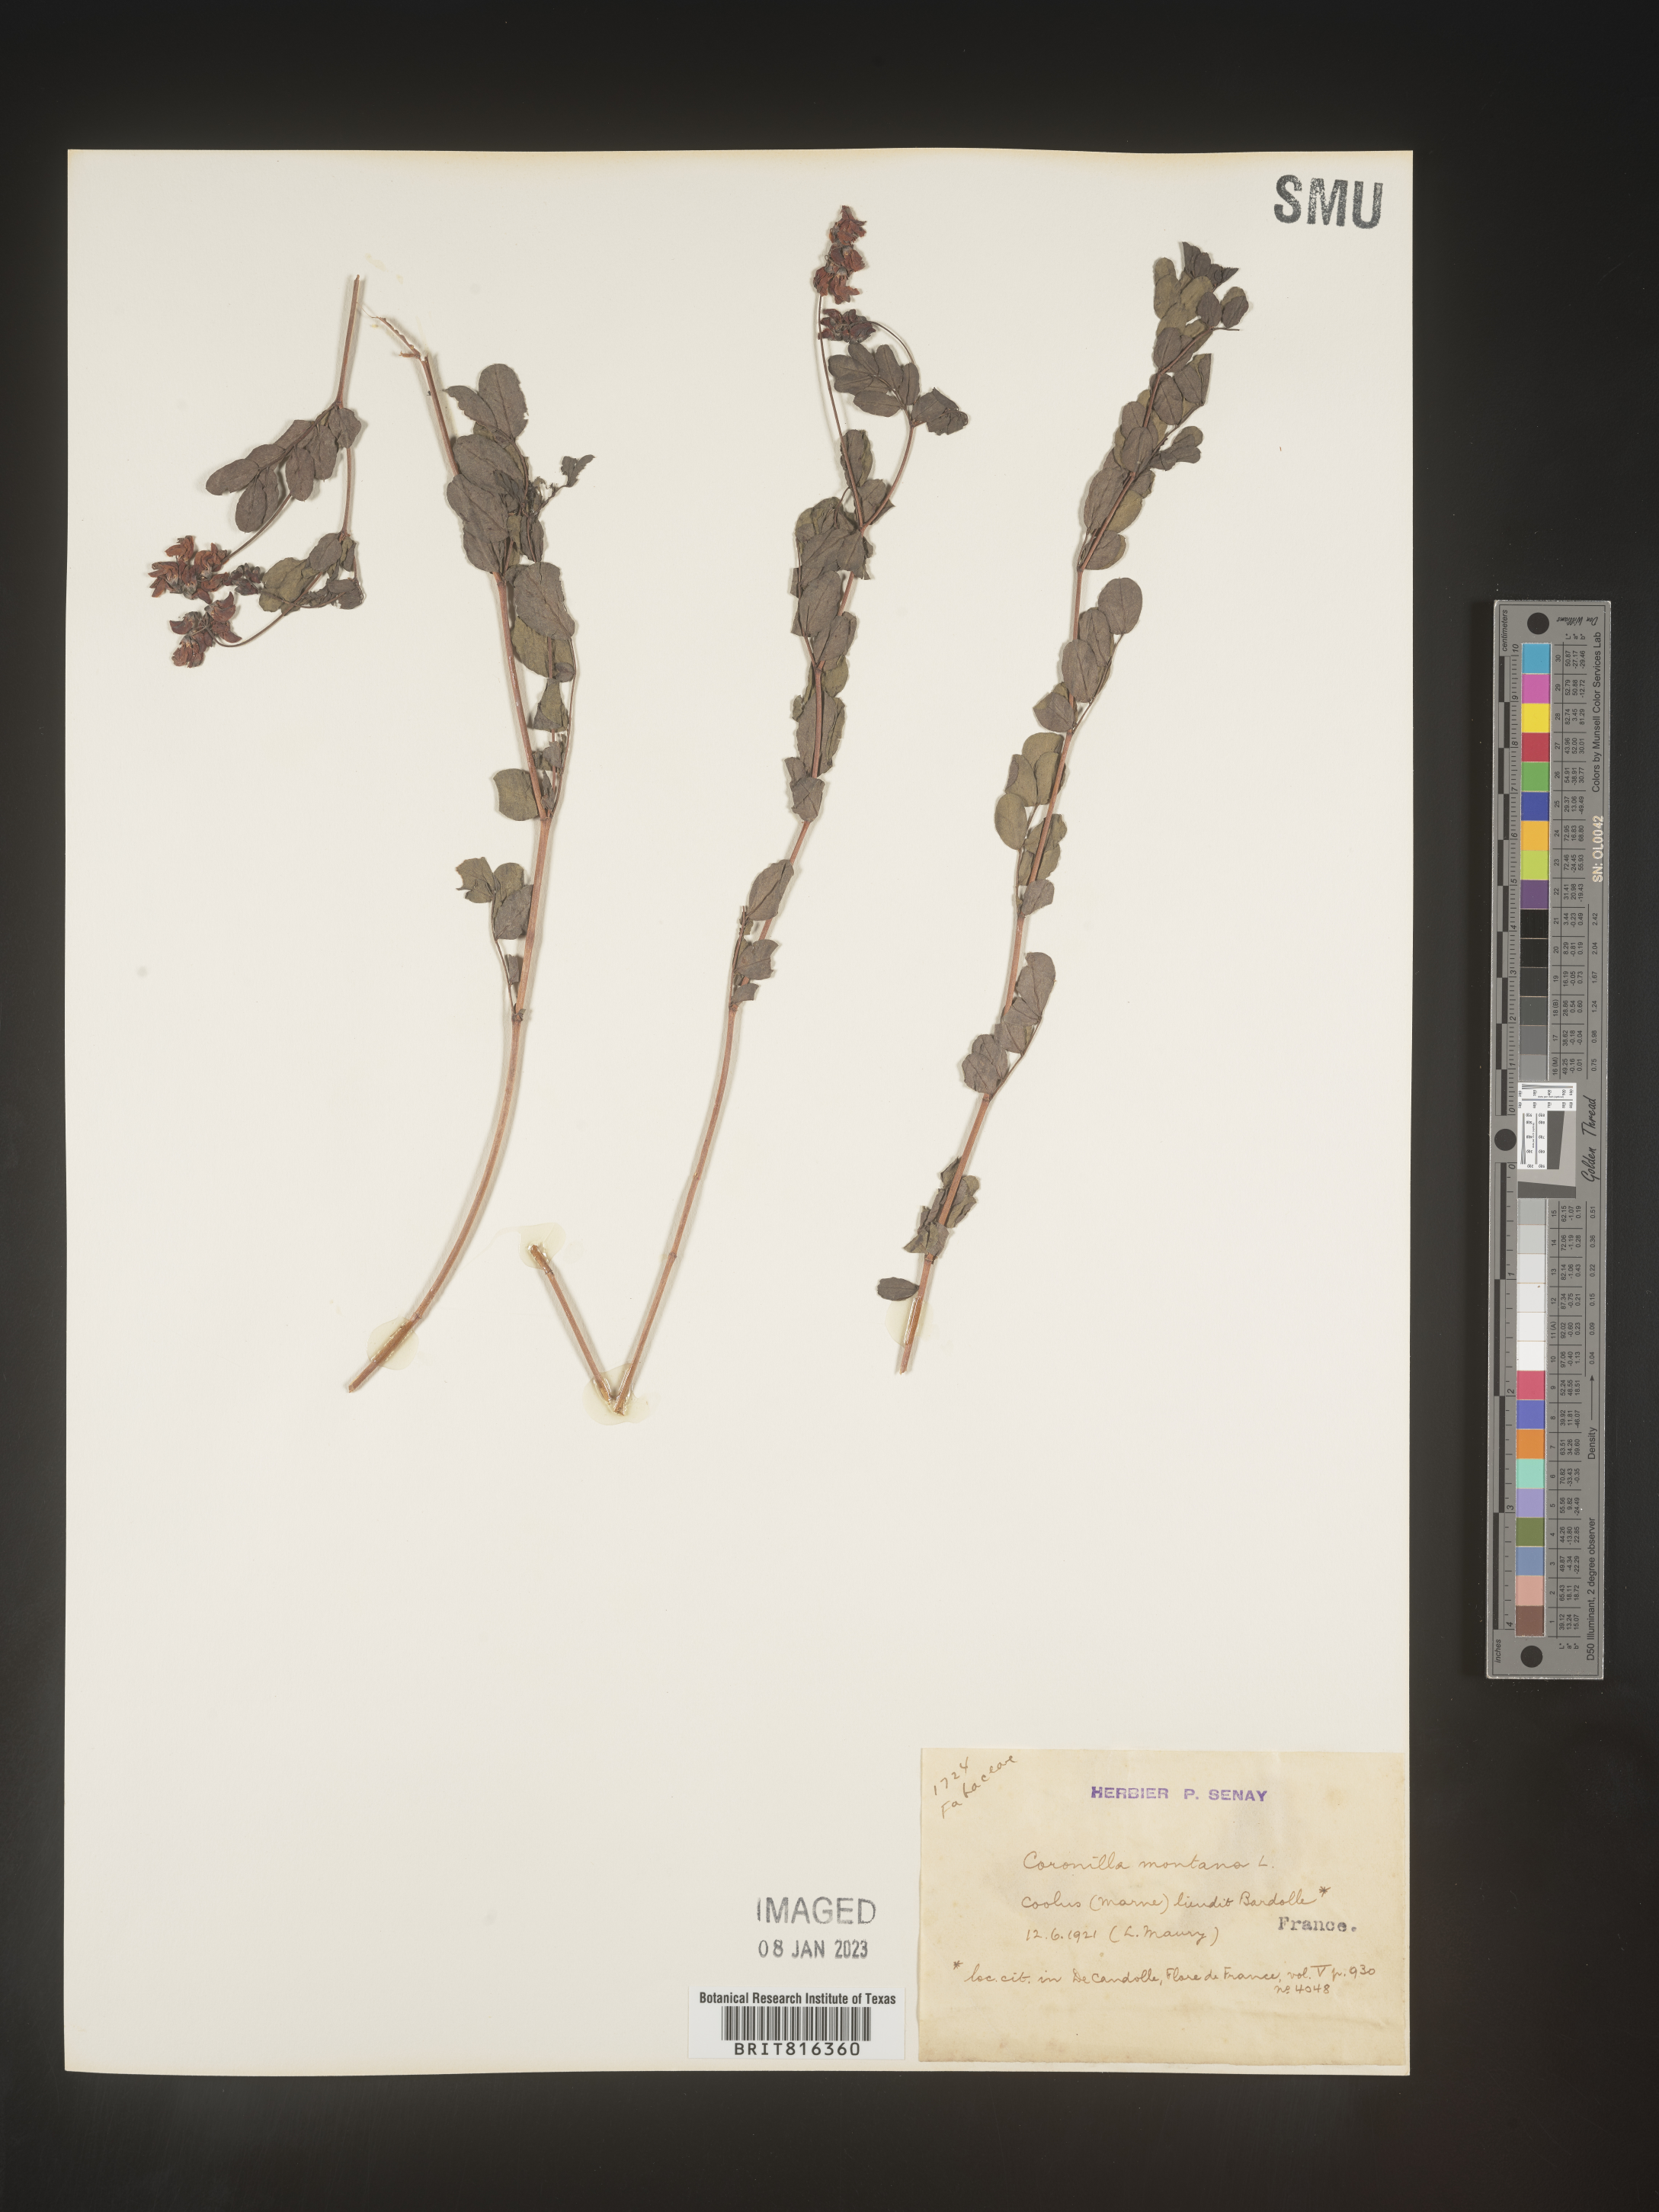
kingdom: Plantae
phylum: Tracheophyta
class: Magnoliopsida
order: Fabales
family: Fabaceae
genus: Coronilla
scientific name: Coronilla
